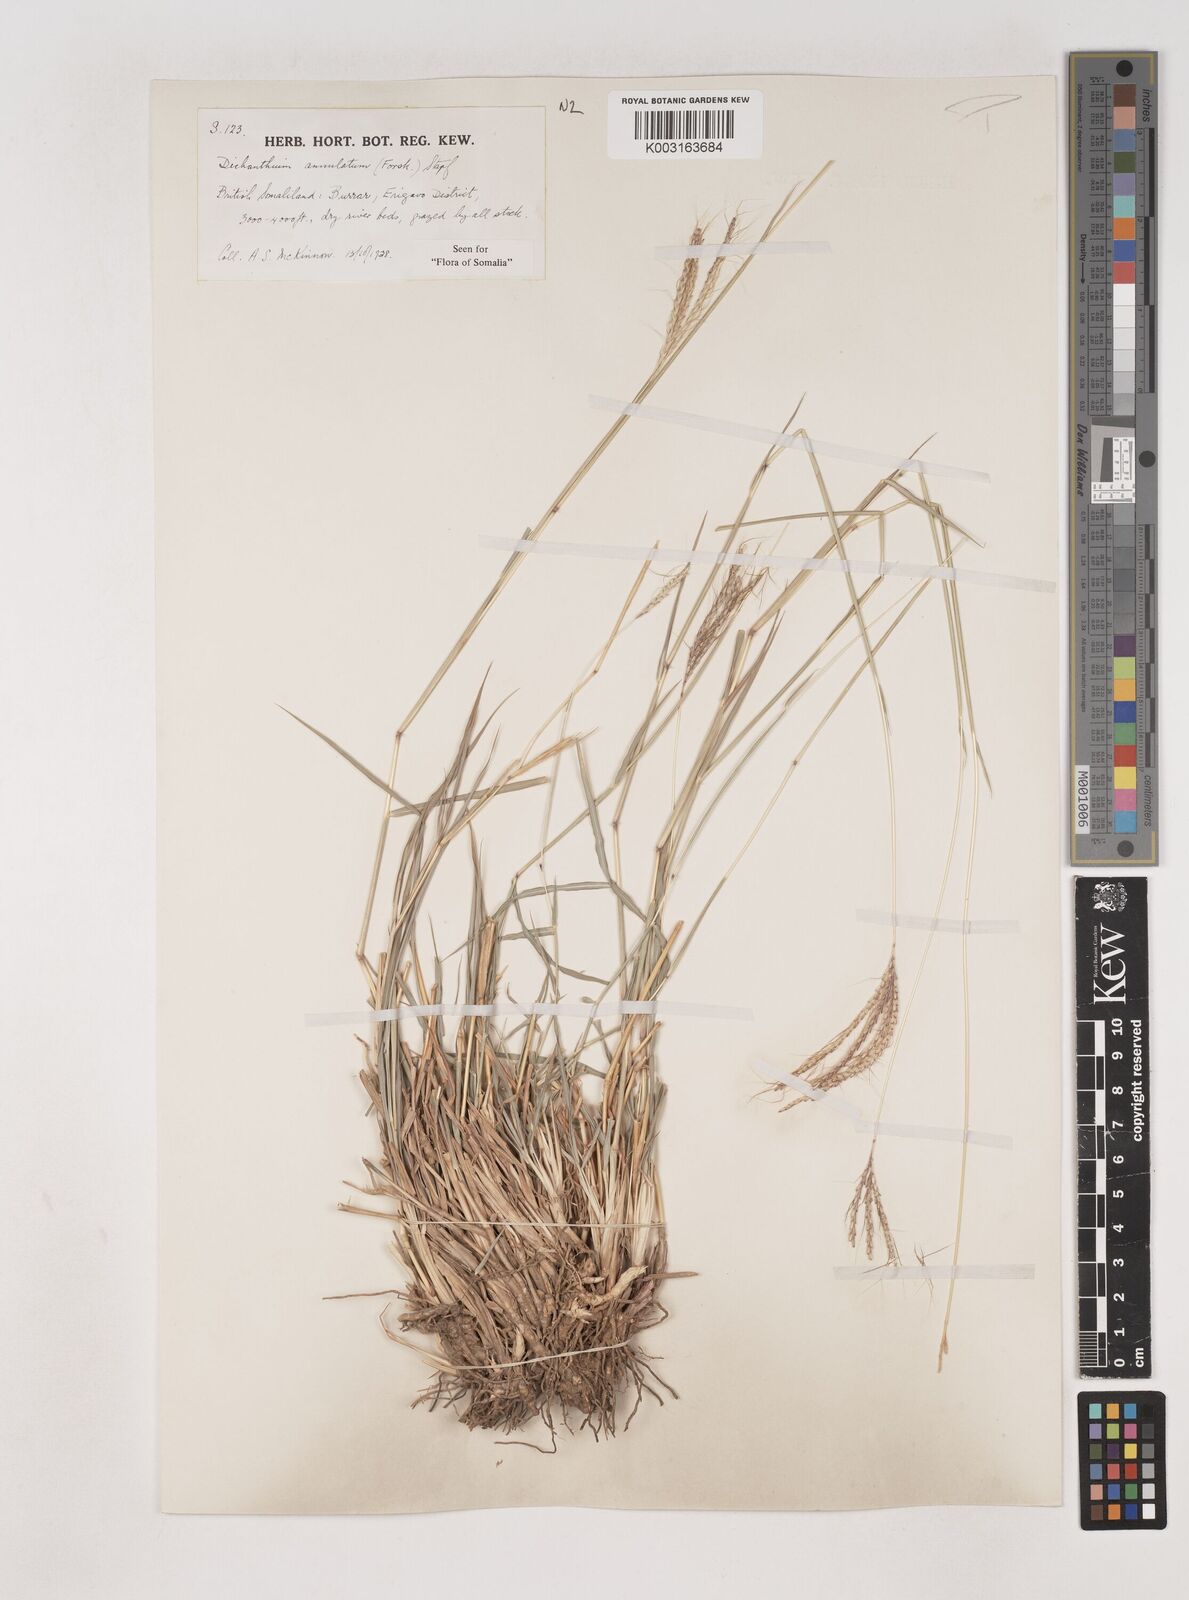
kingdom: Plantae
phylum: Tracheophyta
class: Liliopsida
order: Poales
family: Poaceae
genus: Dichanthium
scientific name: Dichanthium annulatum
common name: Kleberg's bluestem
